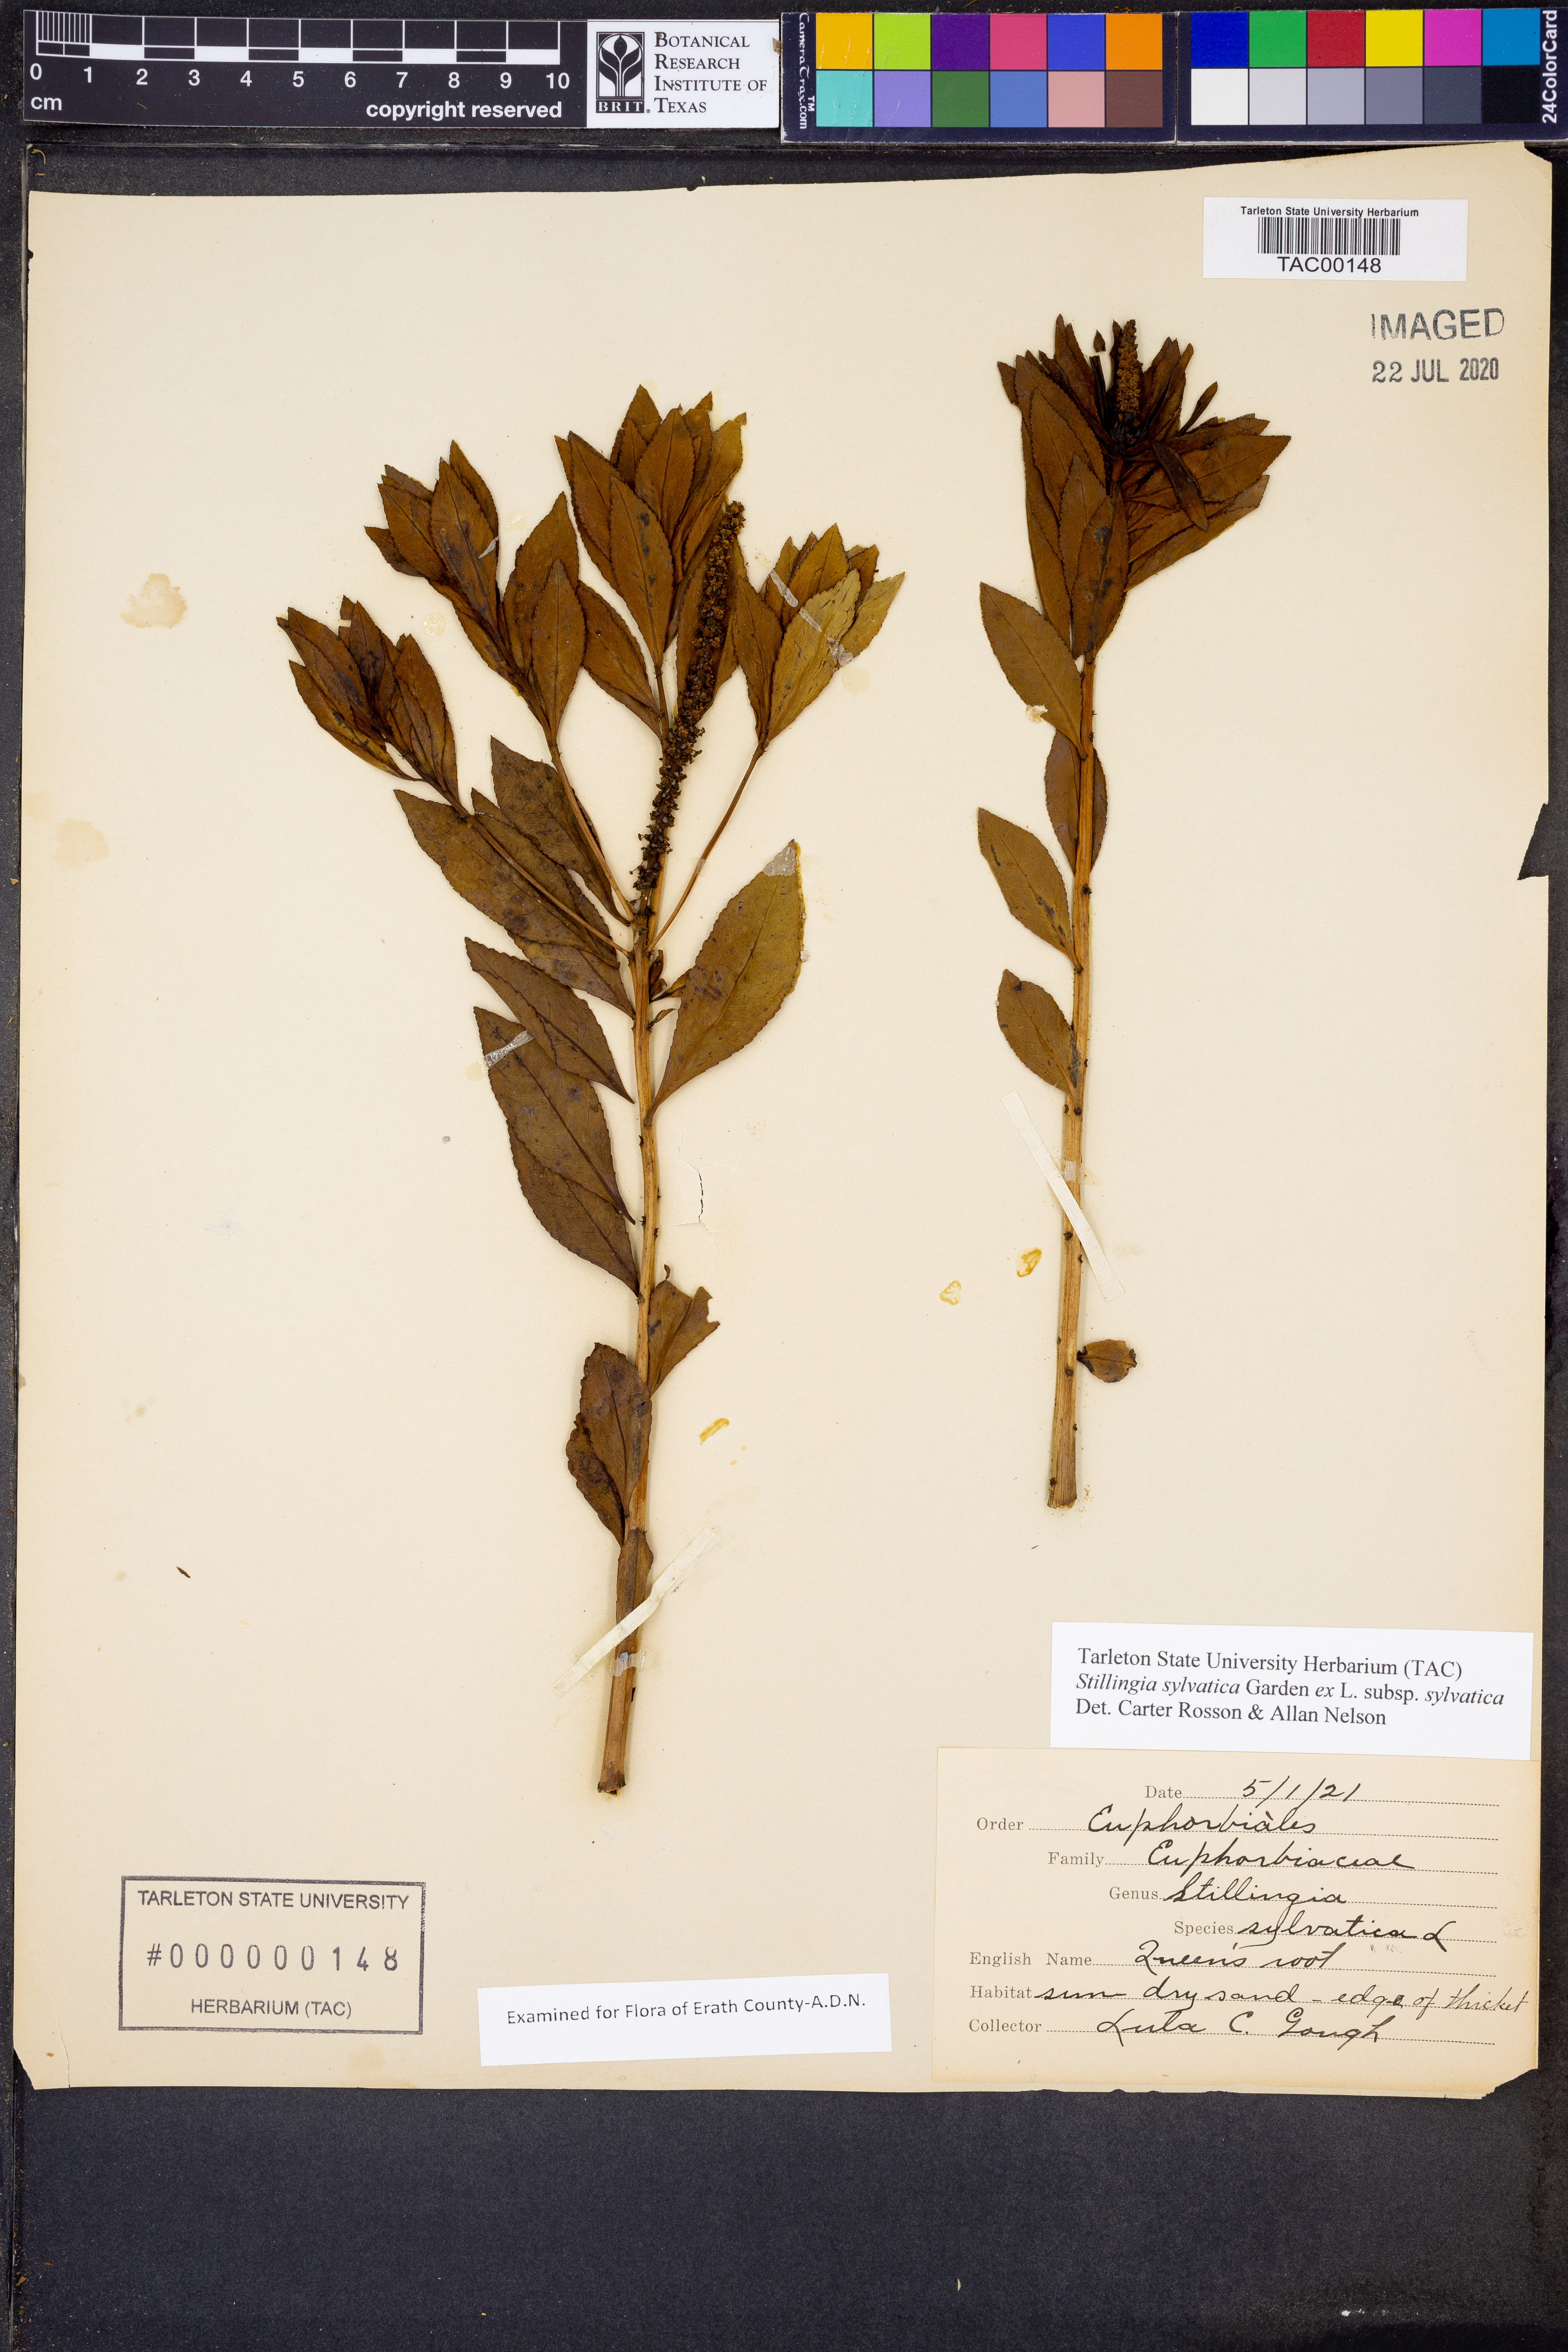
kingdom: Plantae
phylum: Tracheophyta
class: Magnoliopsida
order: Malpighiales
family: Euphorbiaceae
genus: Stillingia
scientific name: Stillingia sylvatica
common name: Queen's-delight
